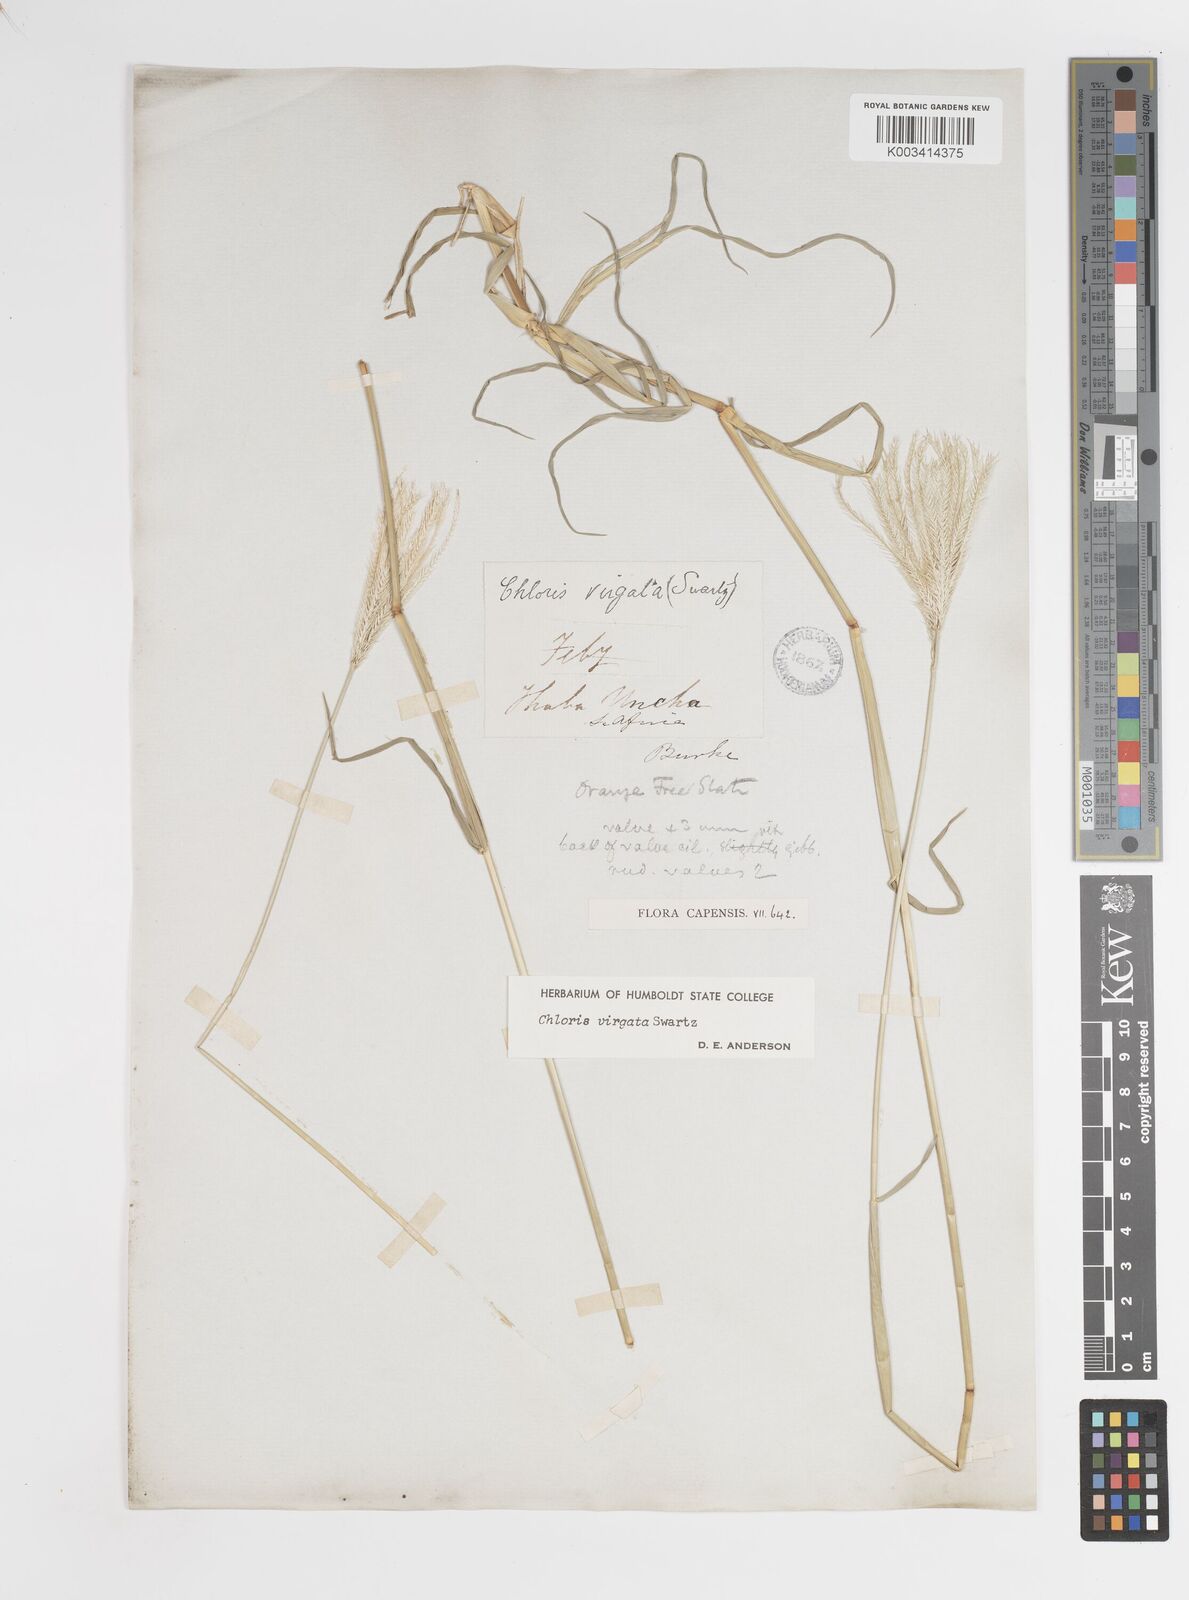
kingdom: Plantae
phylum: Tracheophyta
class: Liliopsida
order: Poales
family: Poaceae
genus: Chloris
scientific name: Chloris virgata
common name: Feathery rhodes-grass
